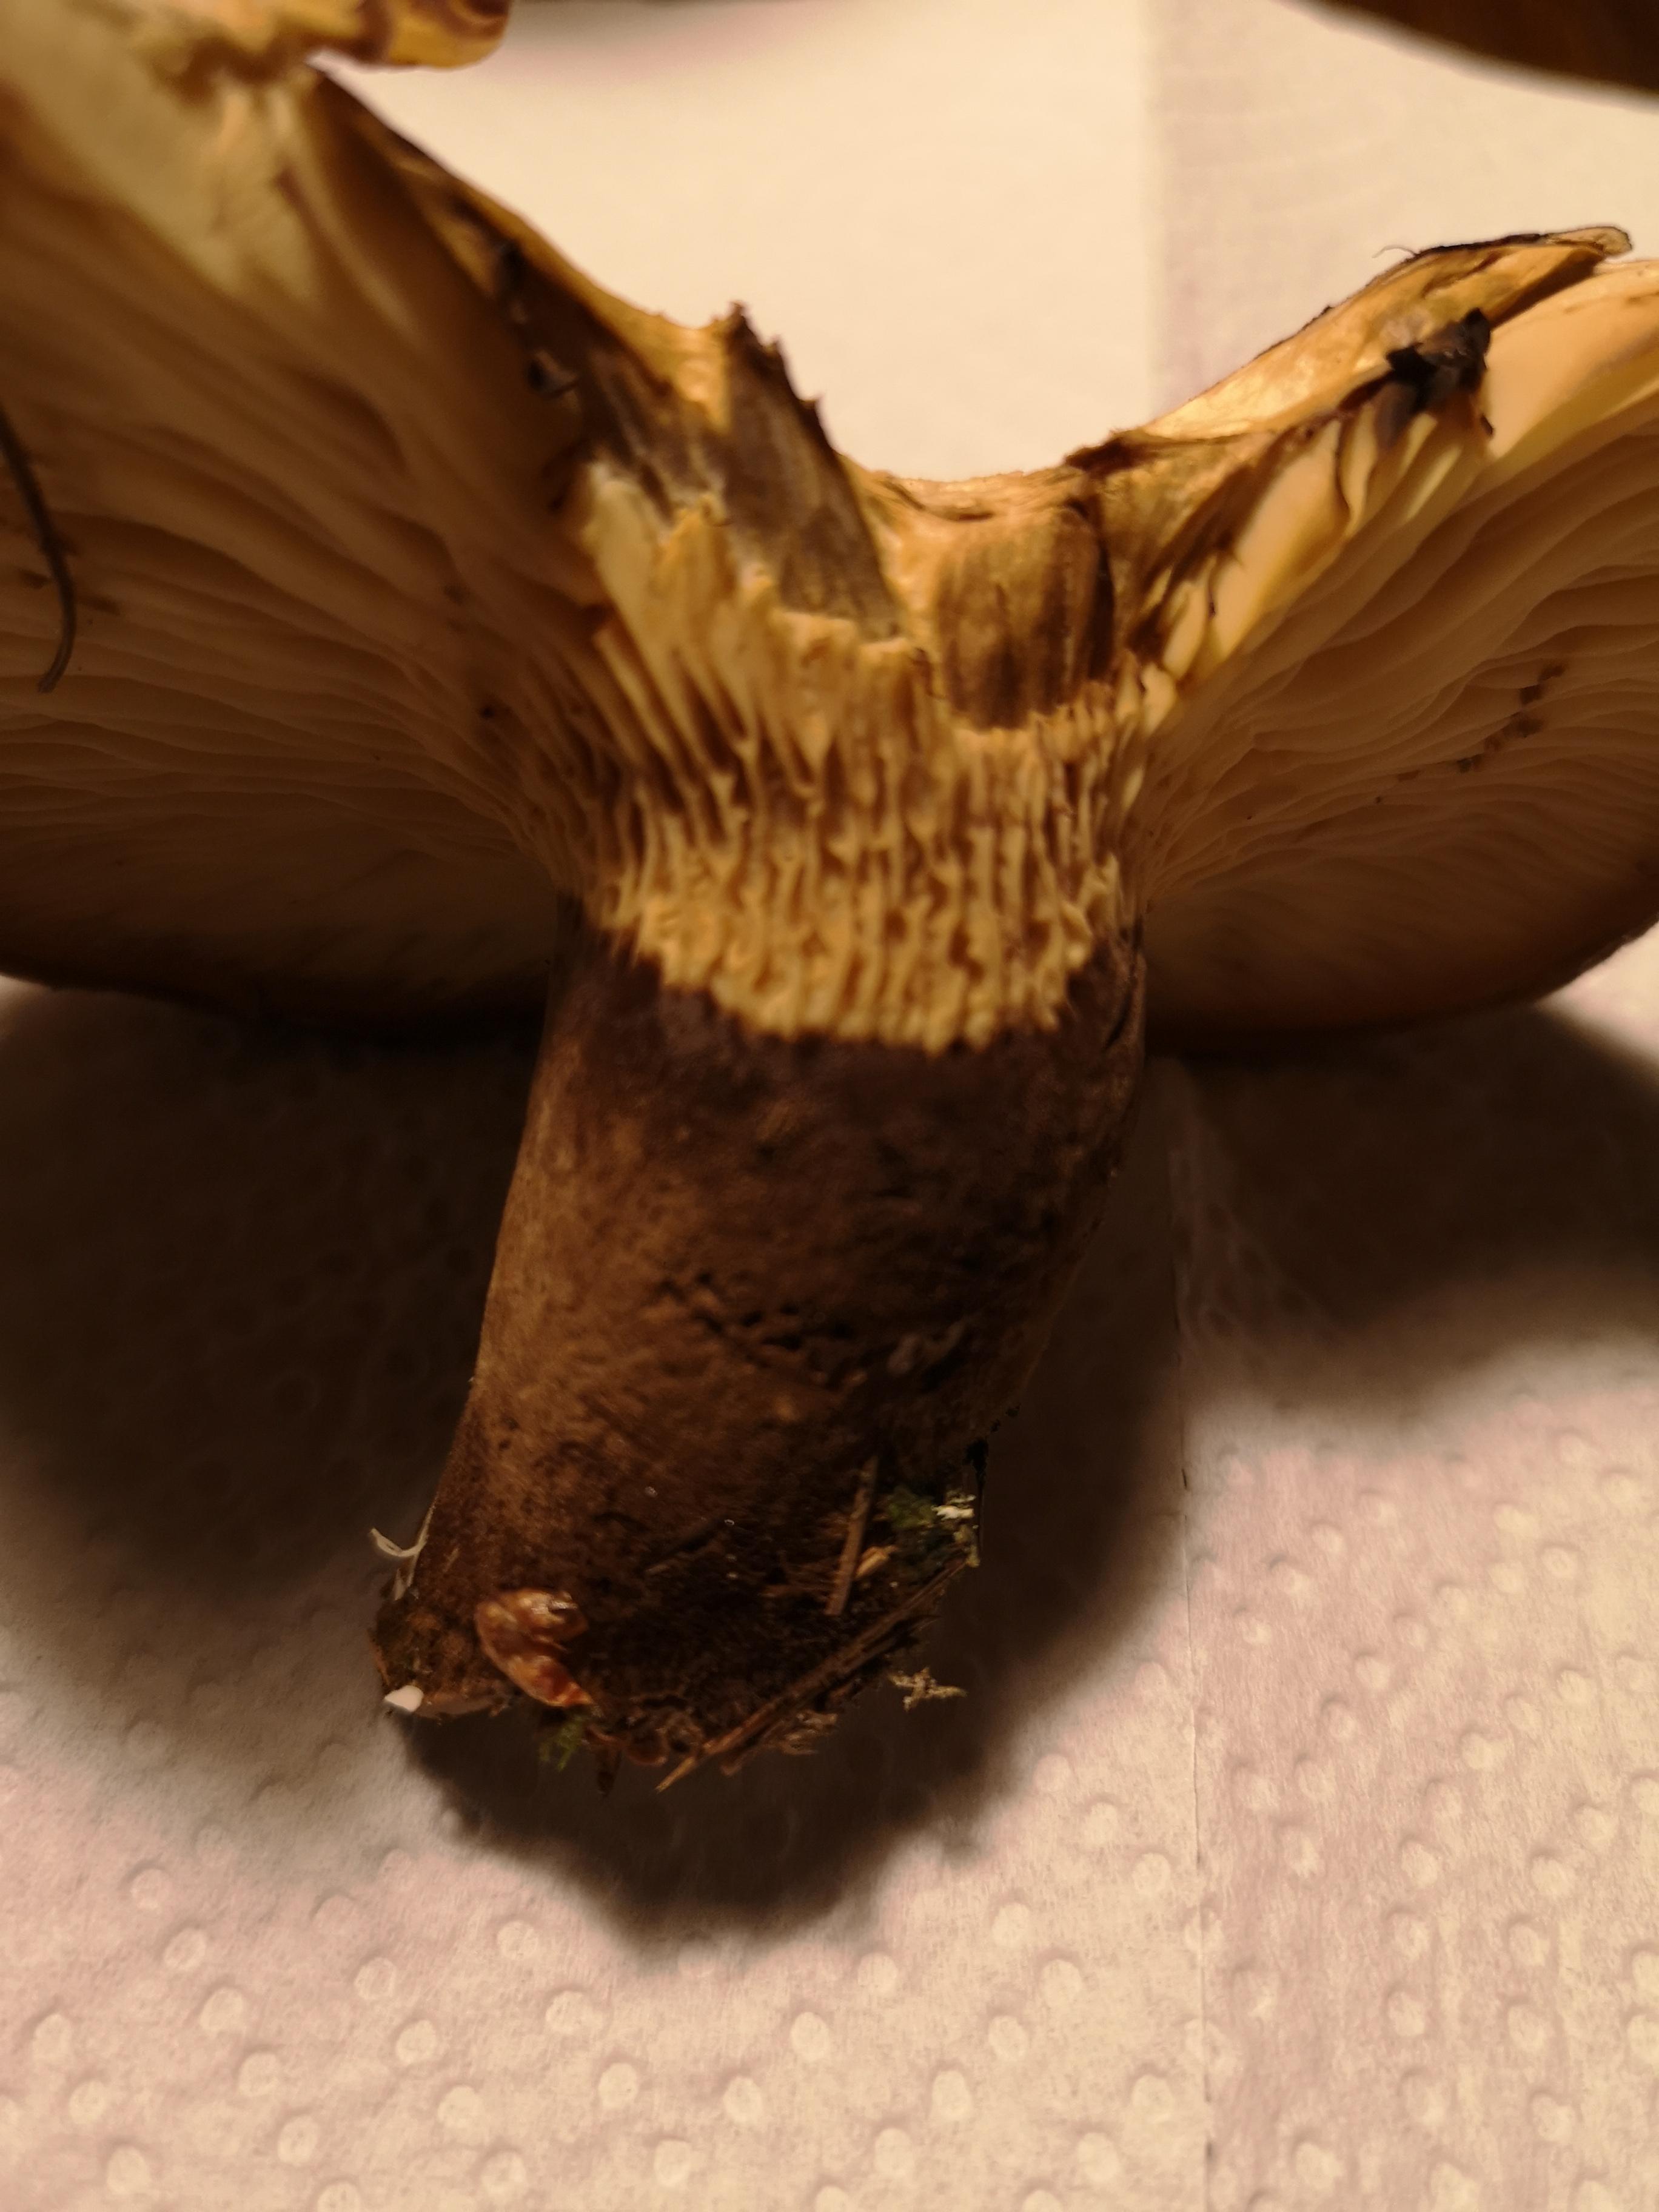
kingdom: Fungi
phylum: Basidiomycota
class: Agaricomycetes
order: Boletales
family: Tapinellaceae
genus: Tapinella
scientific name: Tapinella atrotomentosa
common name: sortfiltet viftesvamp
